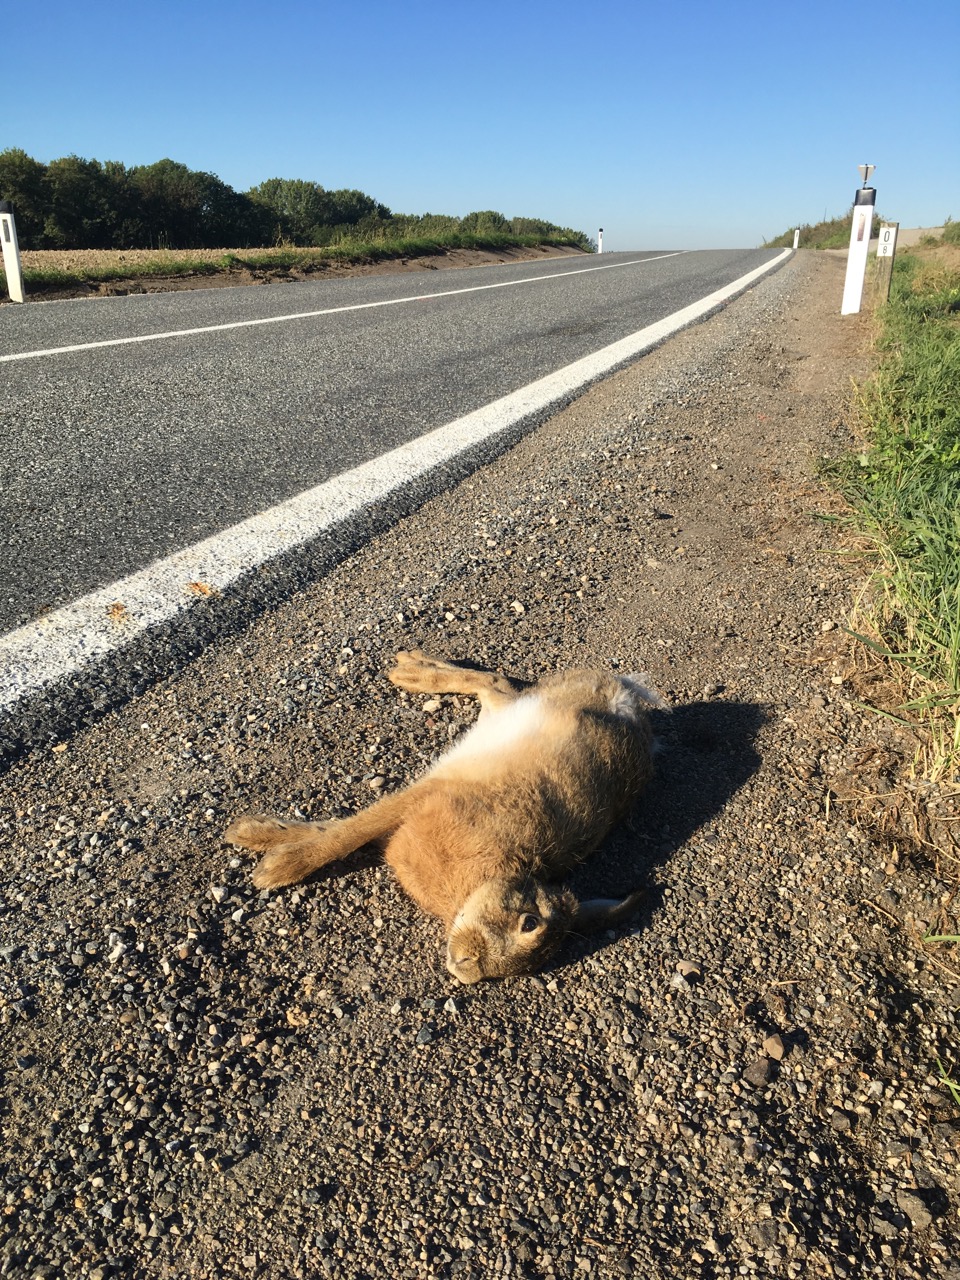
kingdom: Animalia
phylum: Chordata
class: Mammalia
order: Lagomorpha
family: Leporidae
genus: Lepus
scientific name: Lepus europaeus
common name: European hare
